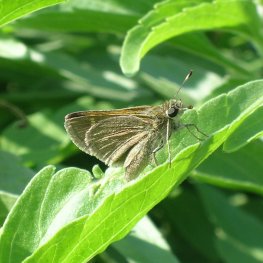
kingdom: Animalia
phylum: Arthropoda
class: Insecta
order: Lepidoptera
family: Hesperiidae
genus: Polites
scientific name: Polites themistocles
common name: Tawny-edged Skipper
